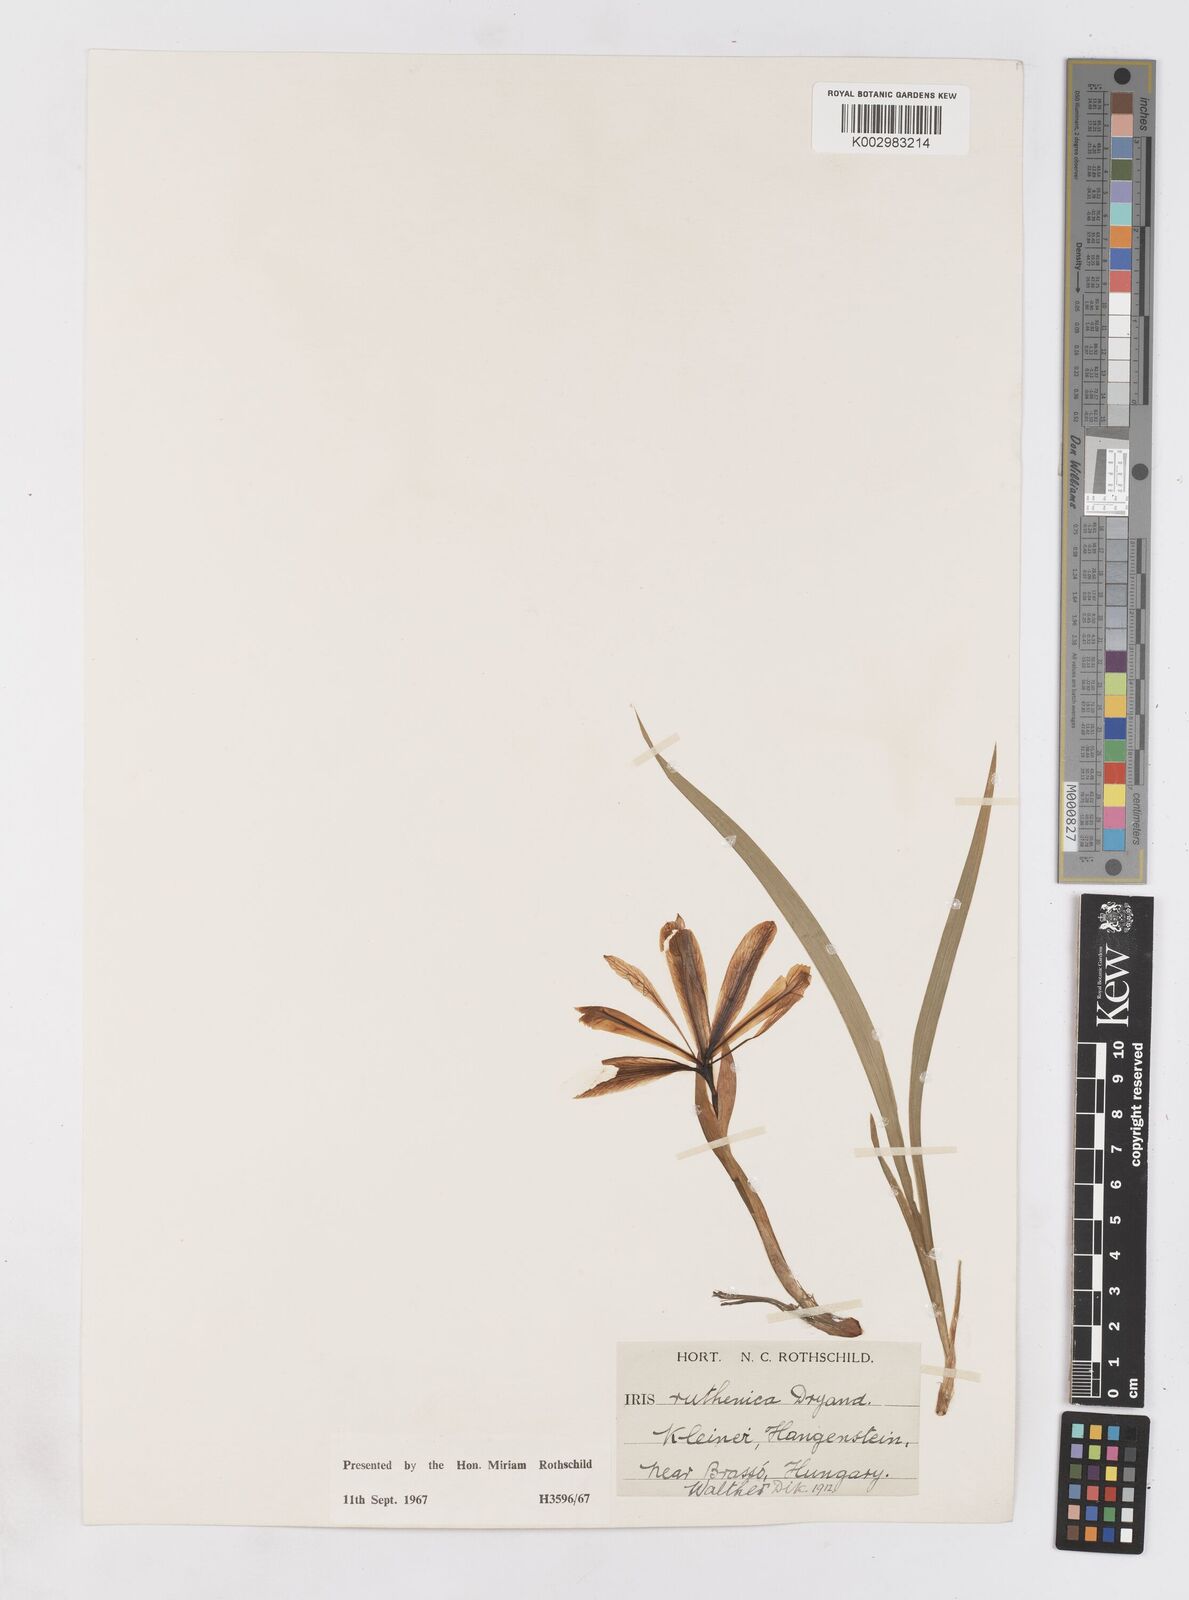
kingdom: Plantae
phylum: Tracheophyta
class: Liliopsida
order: Asparagales
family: Iridaceae
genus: Iris
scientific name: Iris ruthenica
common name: Purple-bract iris
